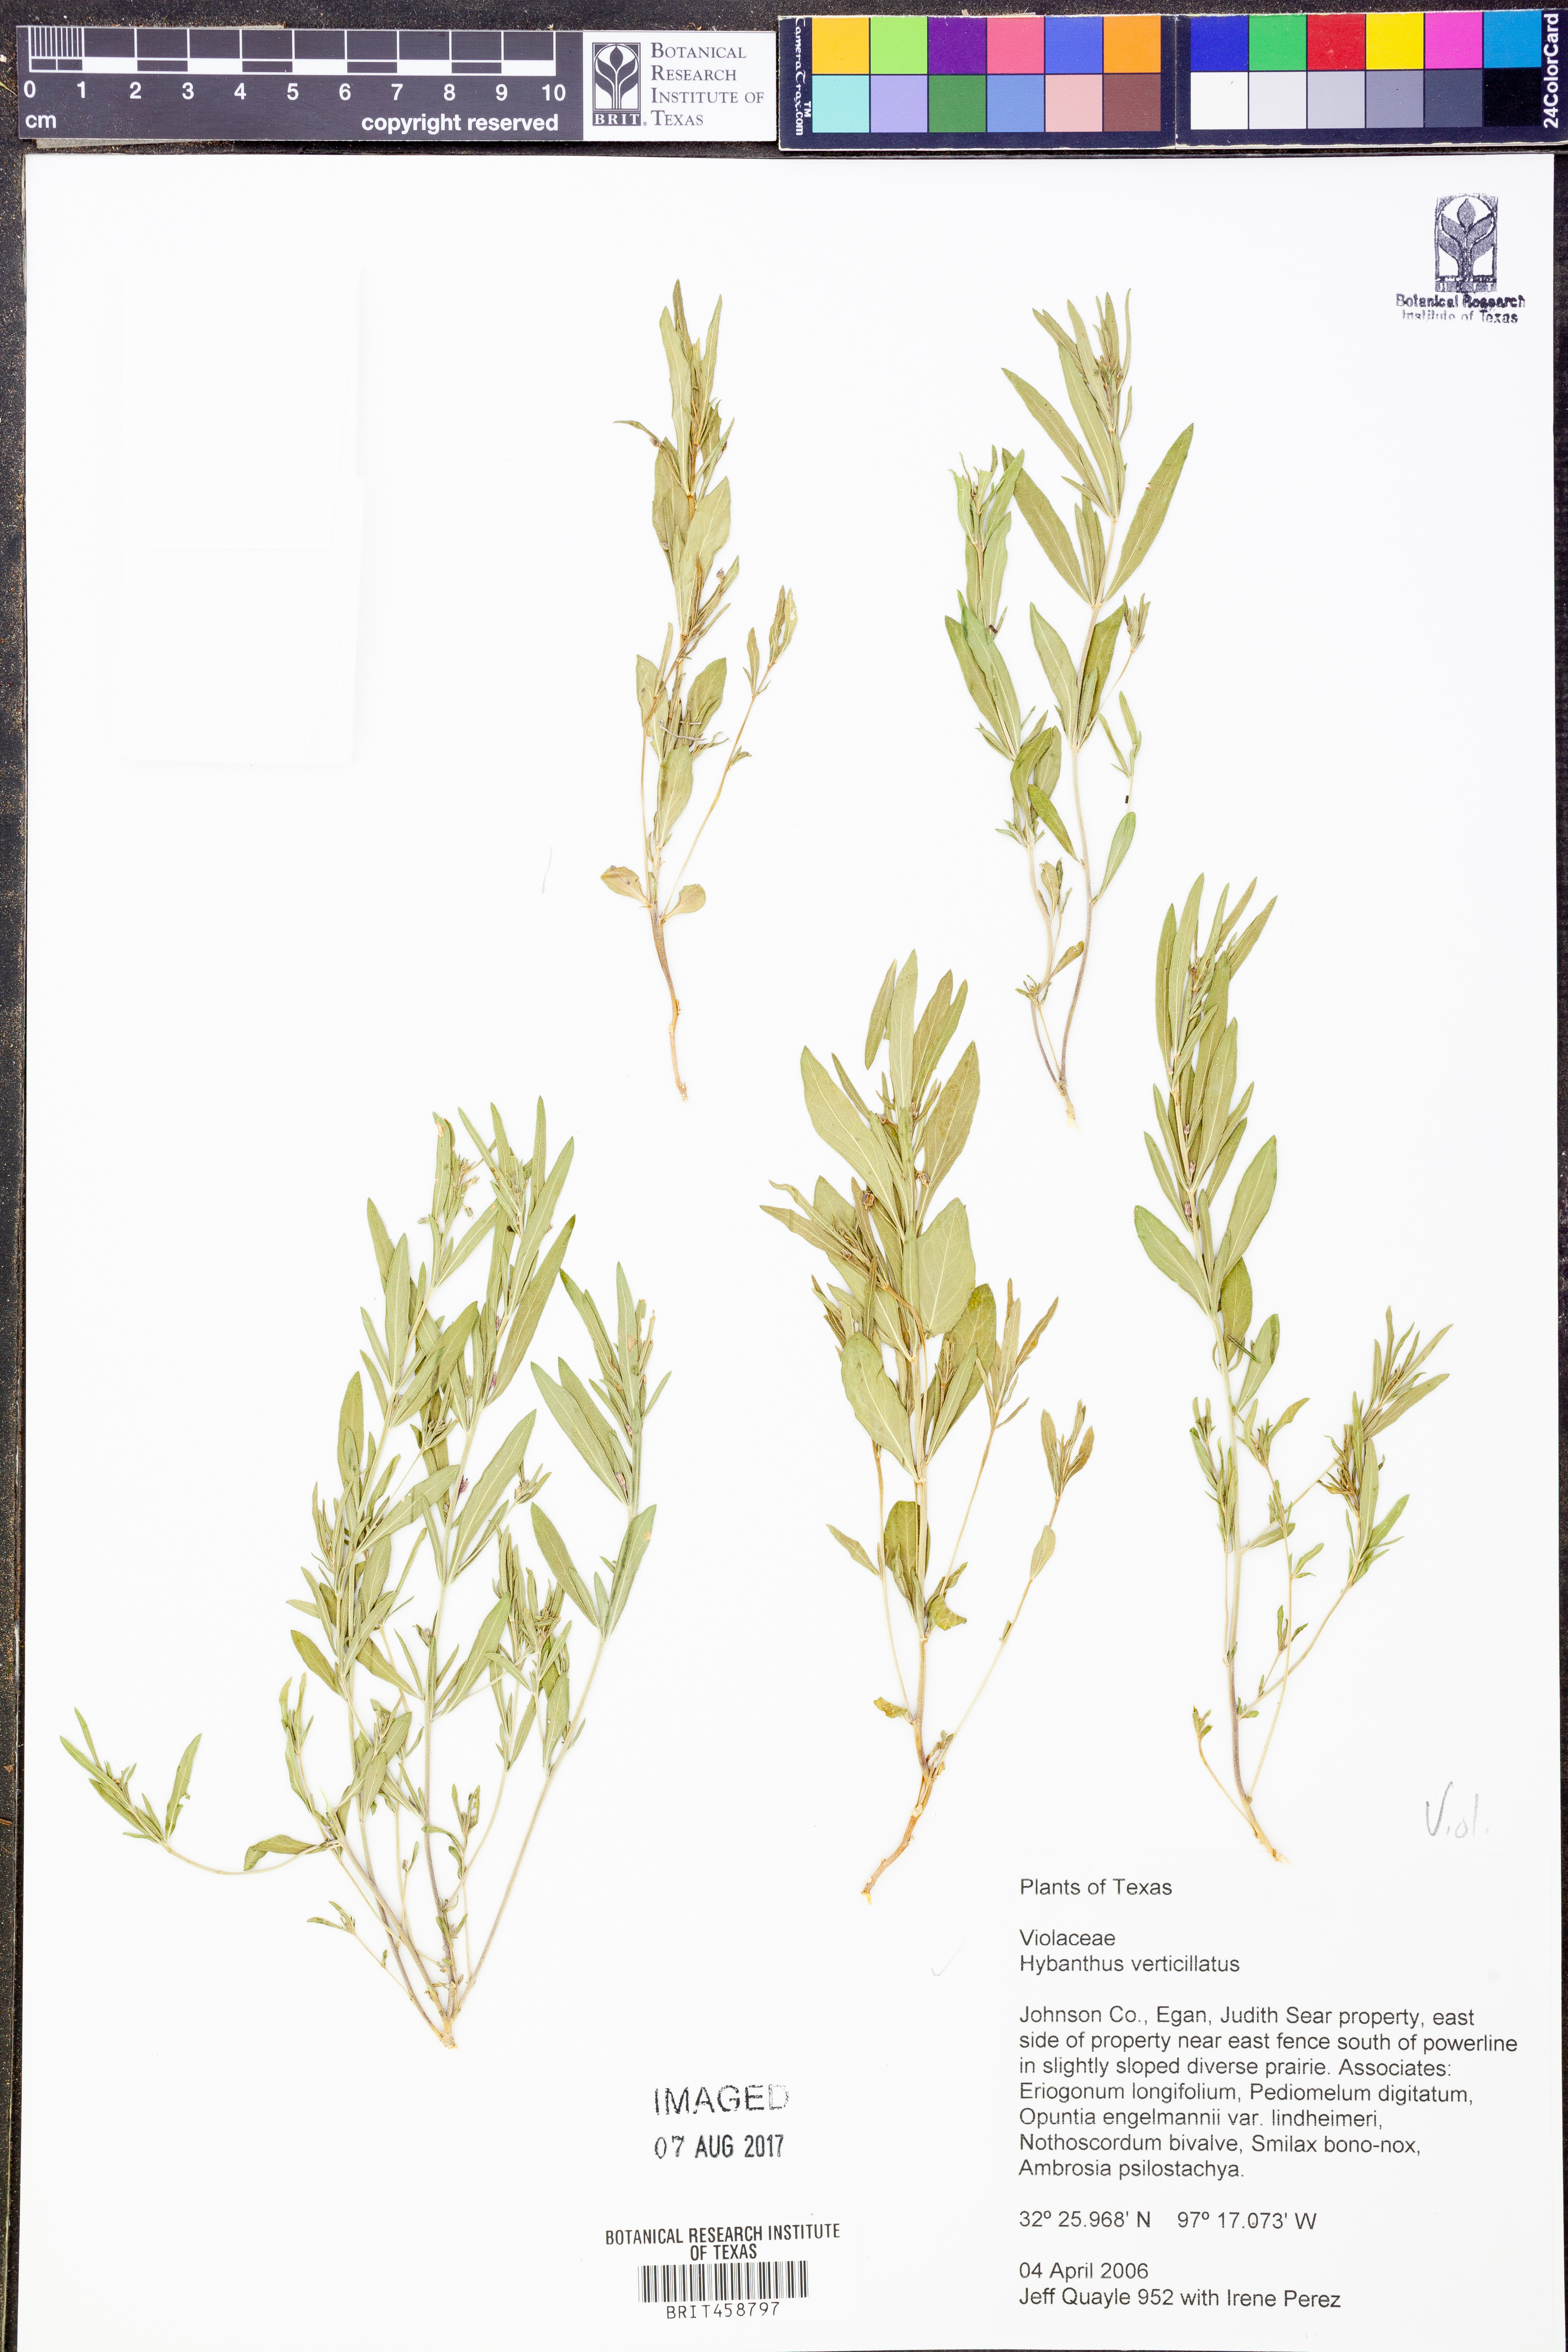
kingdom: Plantae
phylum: Tracheophyta
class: Magnoliopsida
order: Malpighiales
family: Violaceae
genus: Pombalia
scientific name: Pombalia verticillata
